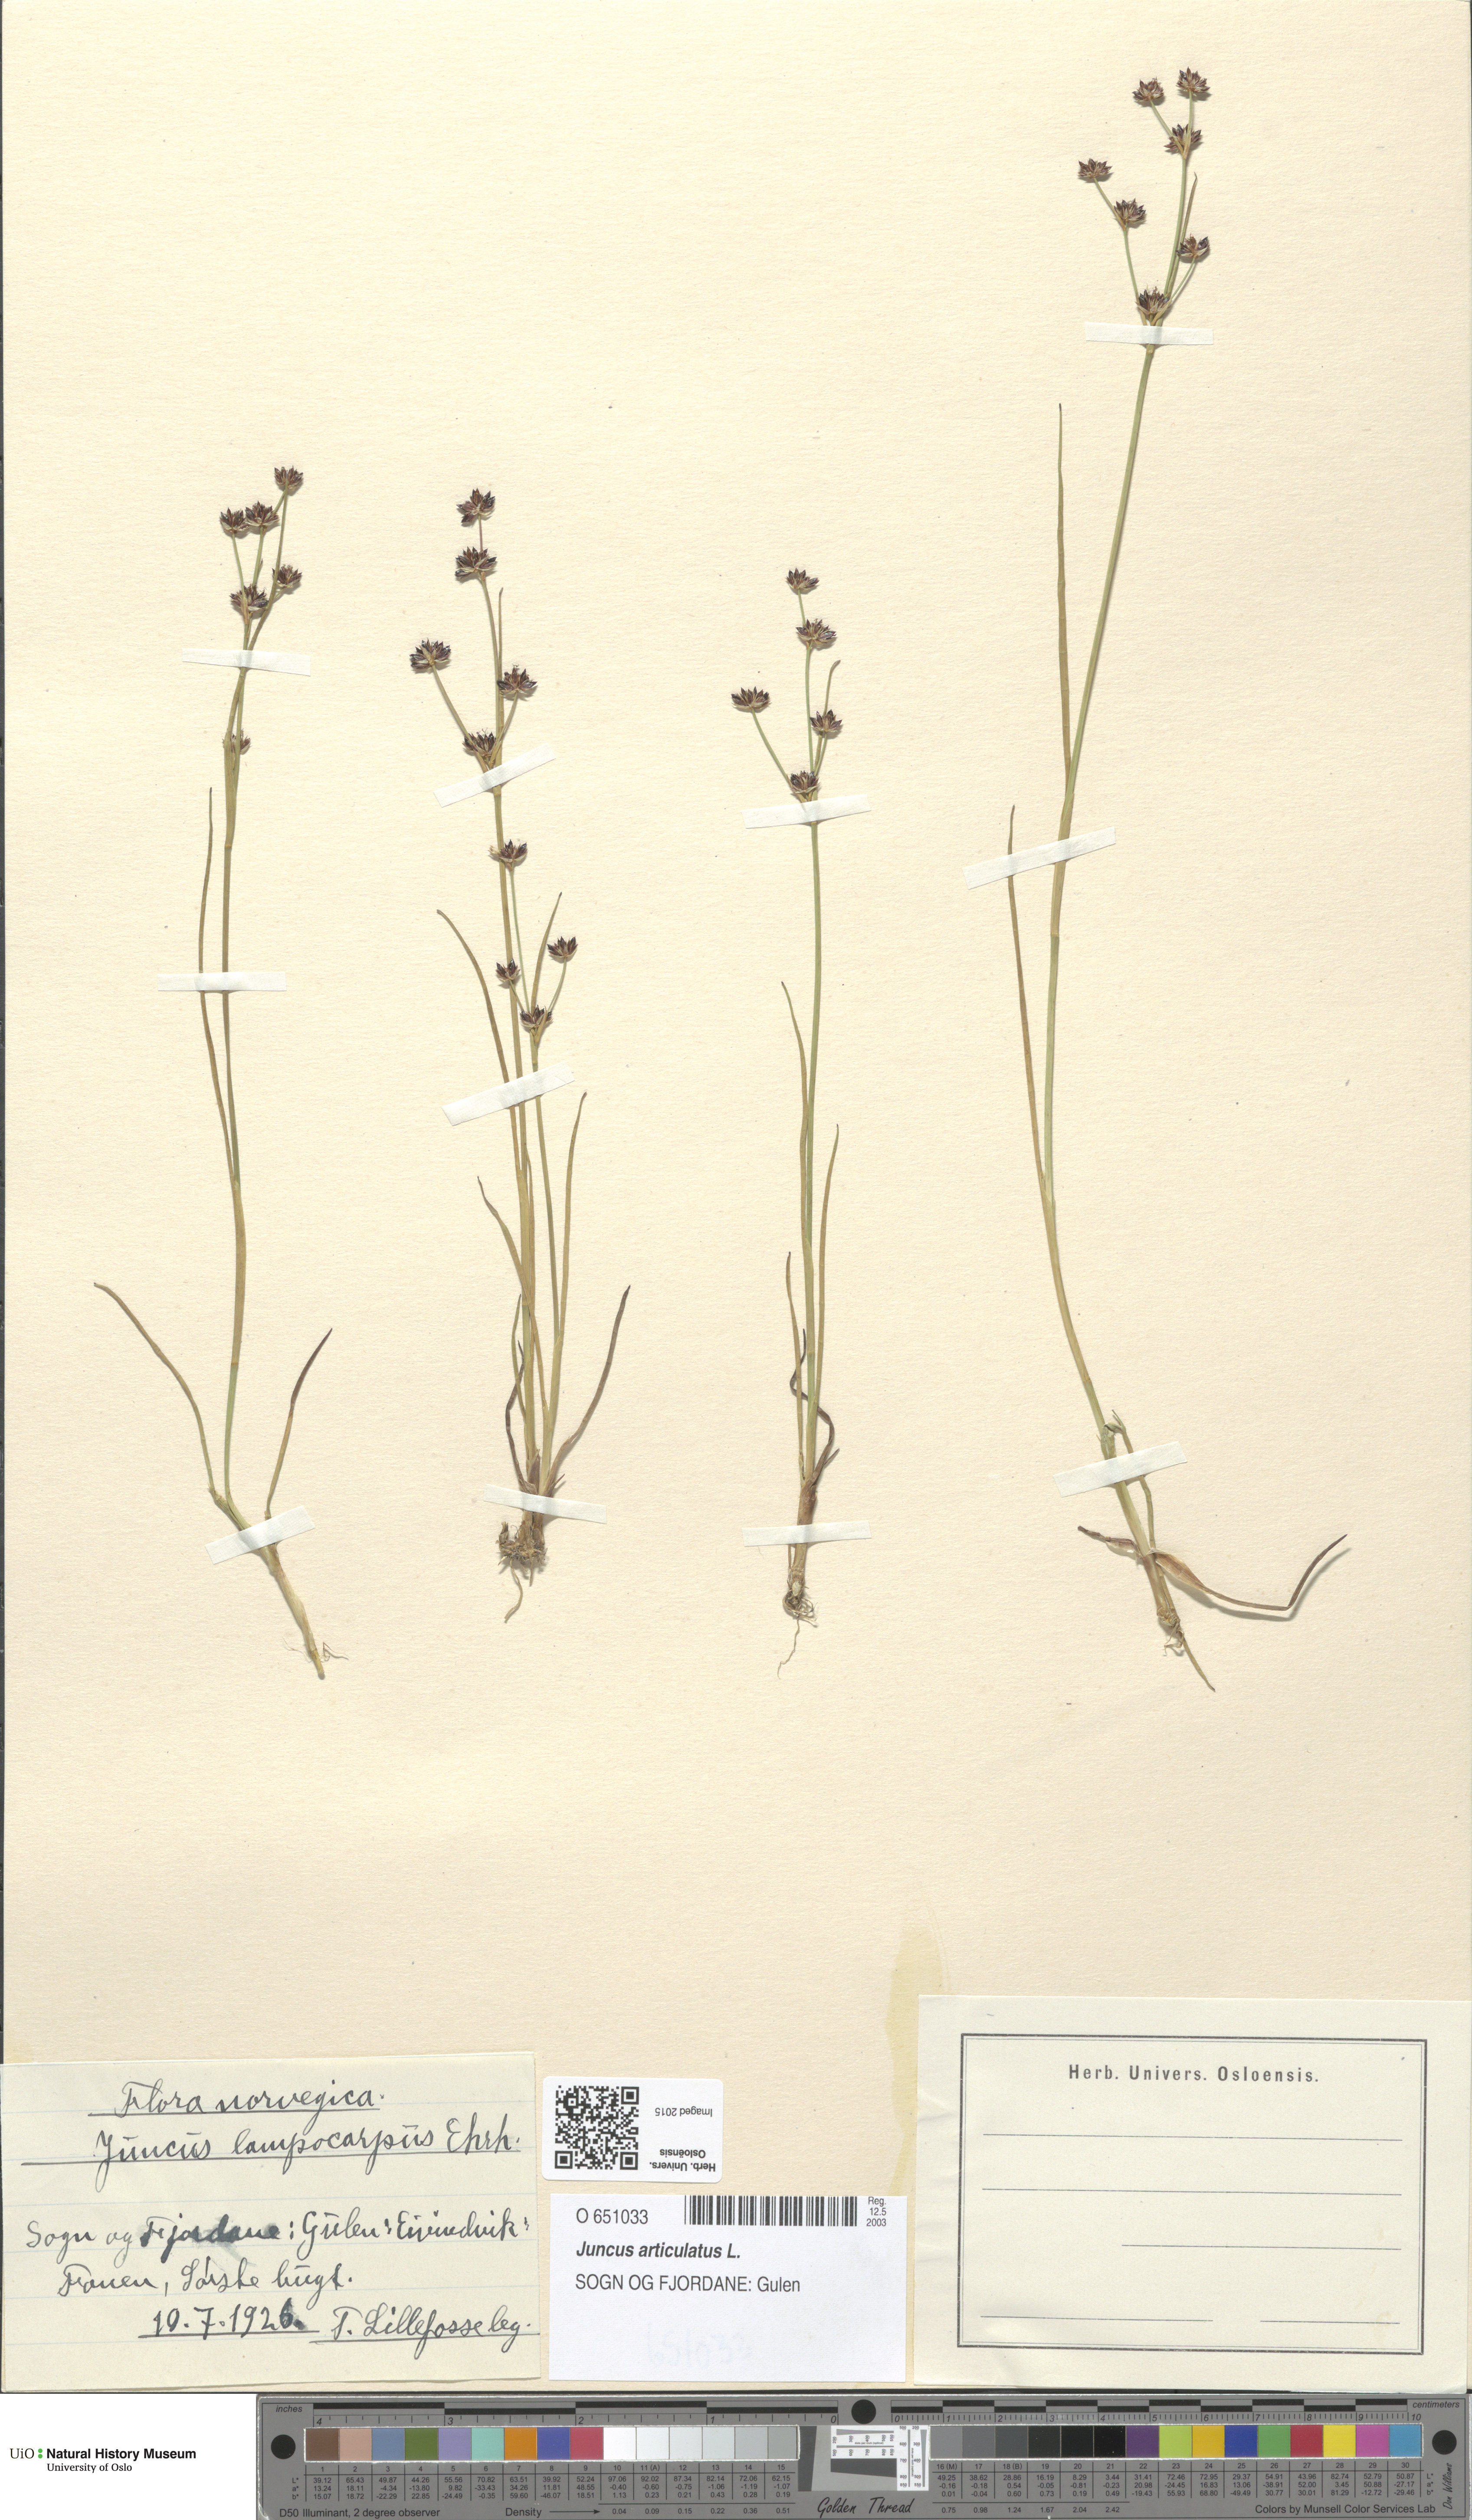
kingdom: Plantae
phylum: Tracheophyta
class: Liliopsida
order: Poales
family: Juncaceae
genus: Juncus
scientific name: Juncus articulatus
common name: Jointed rush
